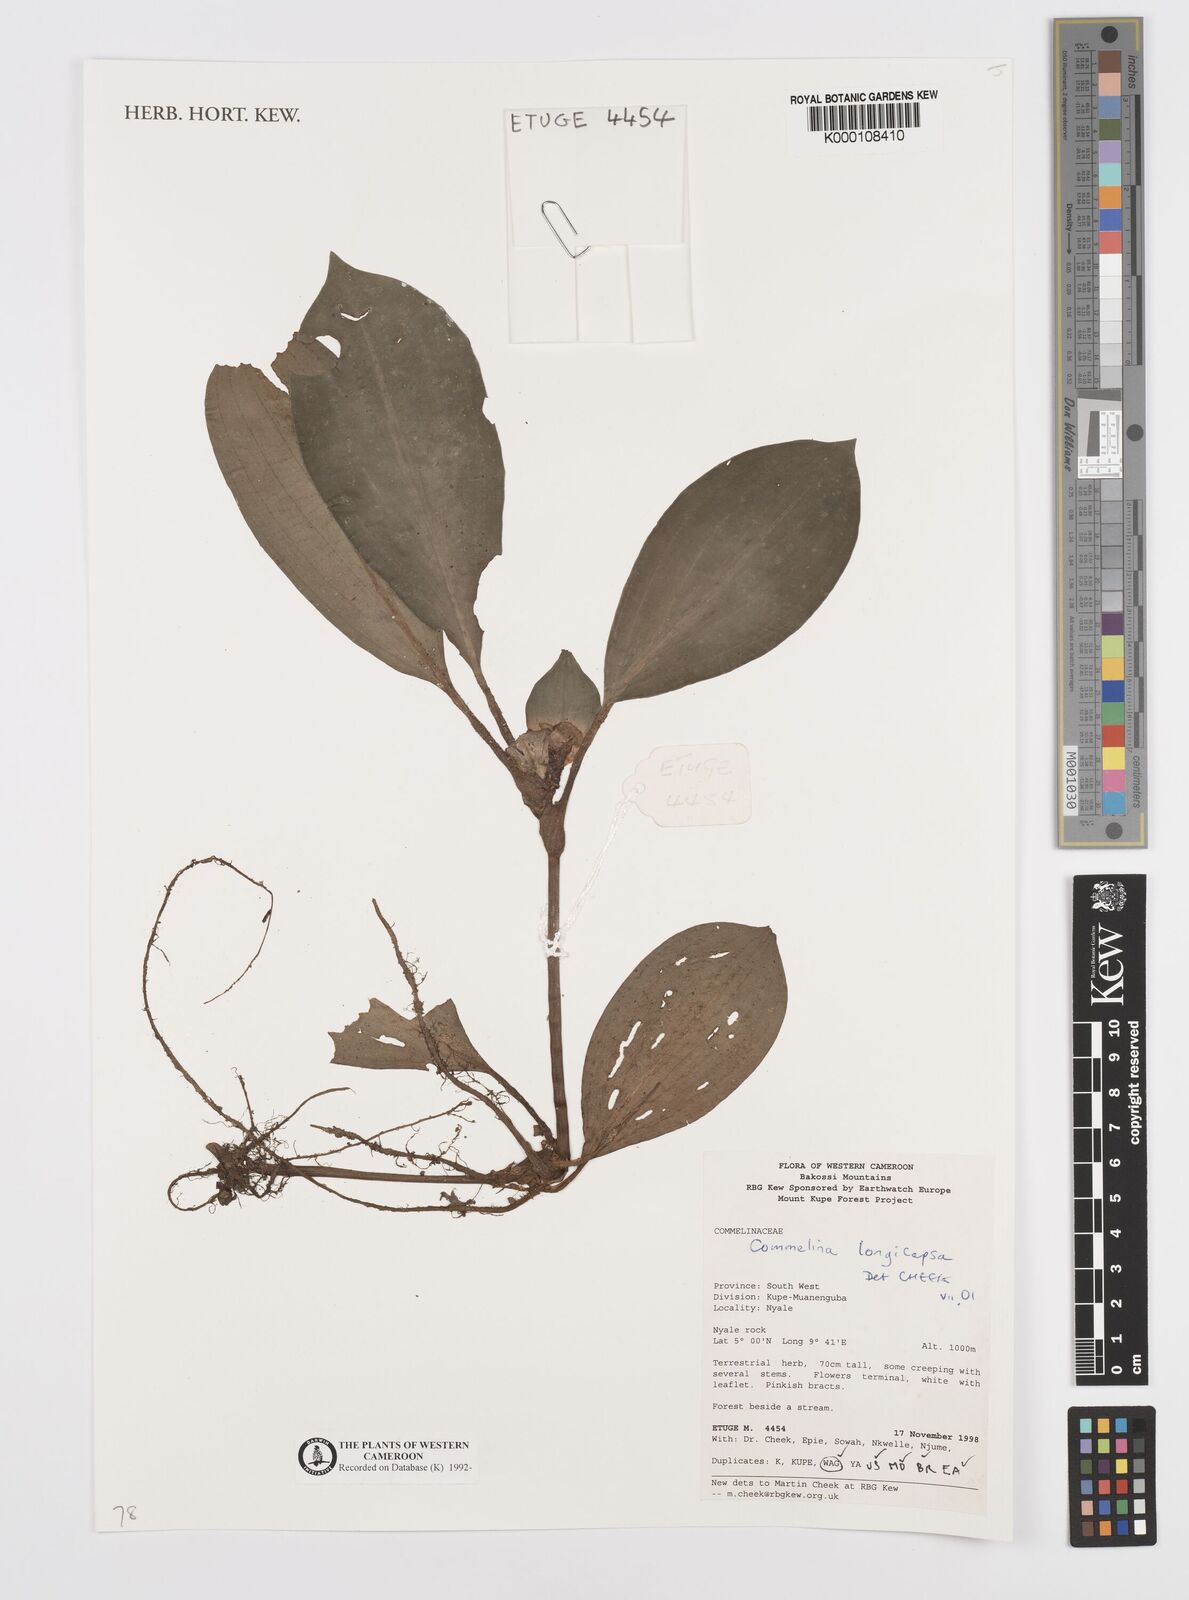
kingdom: Plantae
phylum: Tracheophyta
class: Liliopsida
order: Commelinales
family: Commelinaceae
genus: Commelina
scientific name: Commelina longicapsa
